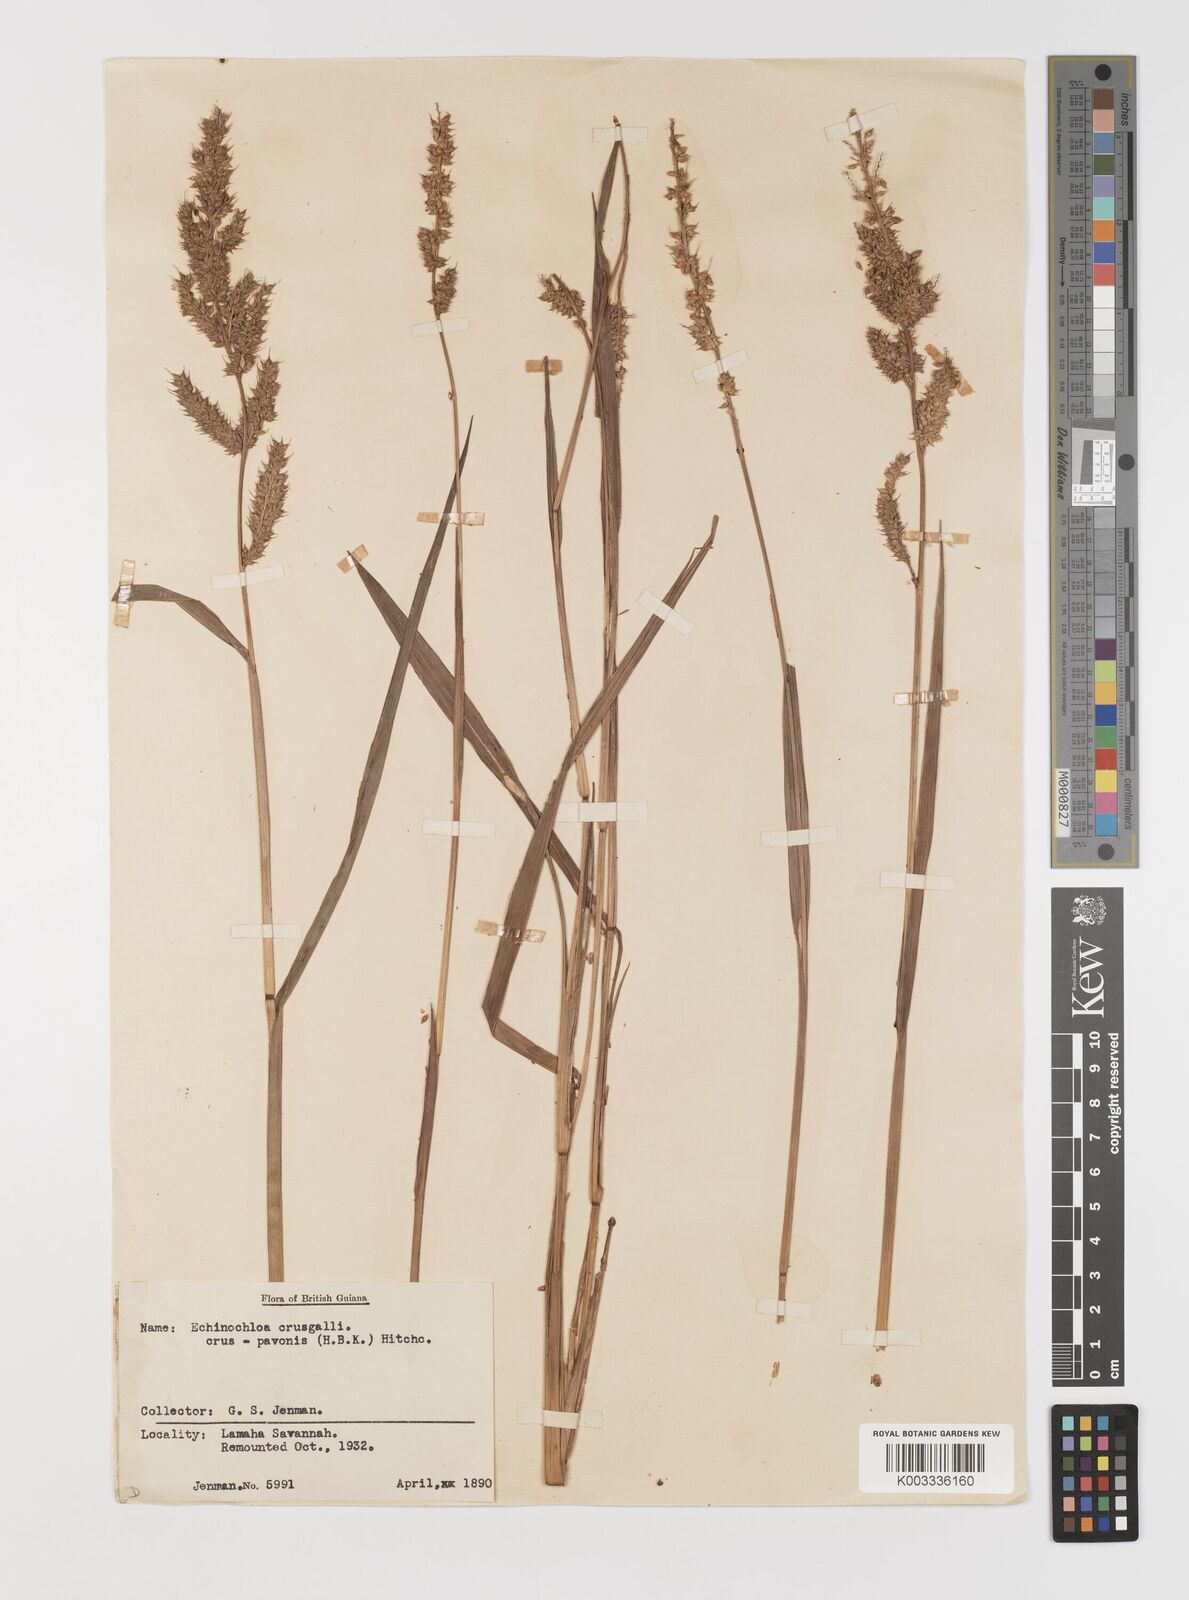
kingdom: Plantae
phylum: Tracheophyta
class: Liliopsida
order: Poales
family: Poaceae
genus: Echinochloa
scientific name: Echinochloa crus-pavonis
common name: Gulf cockspur grass
